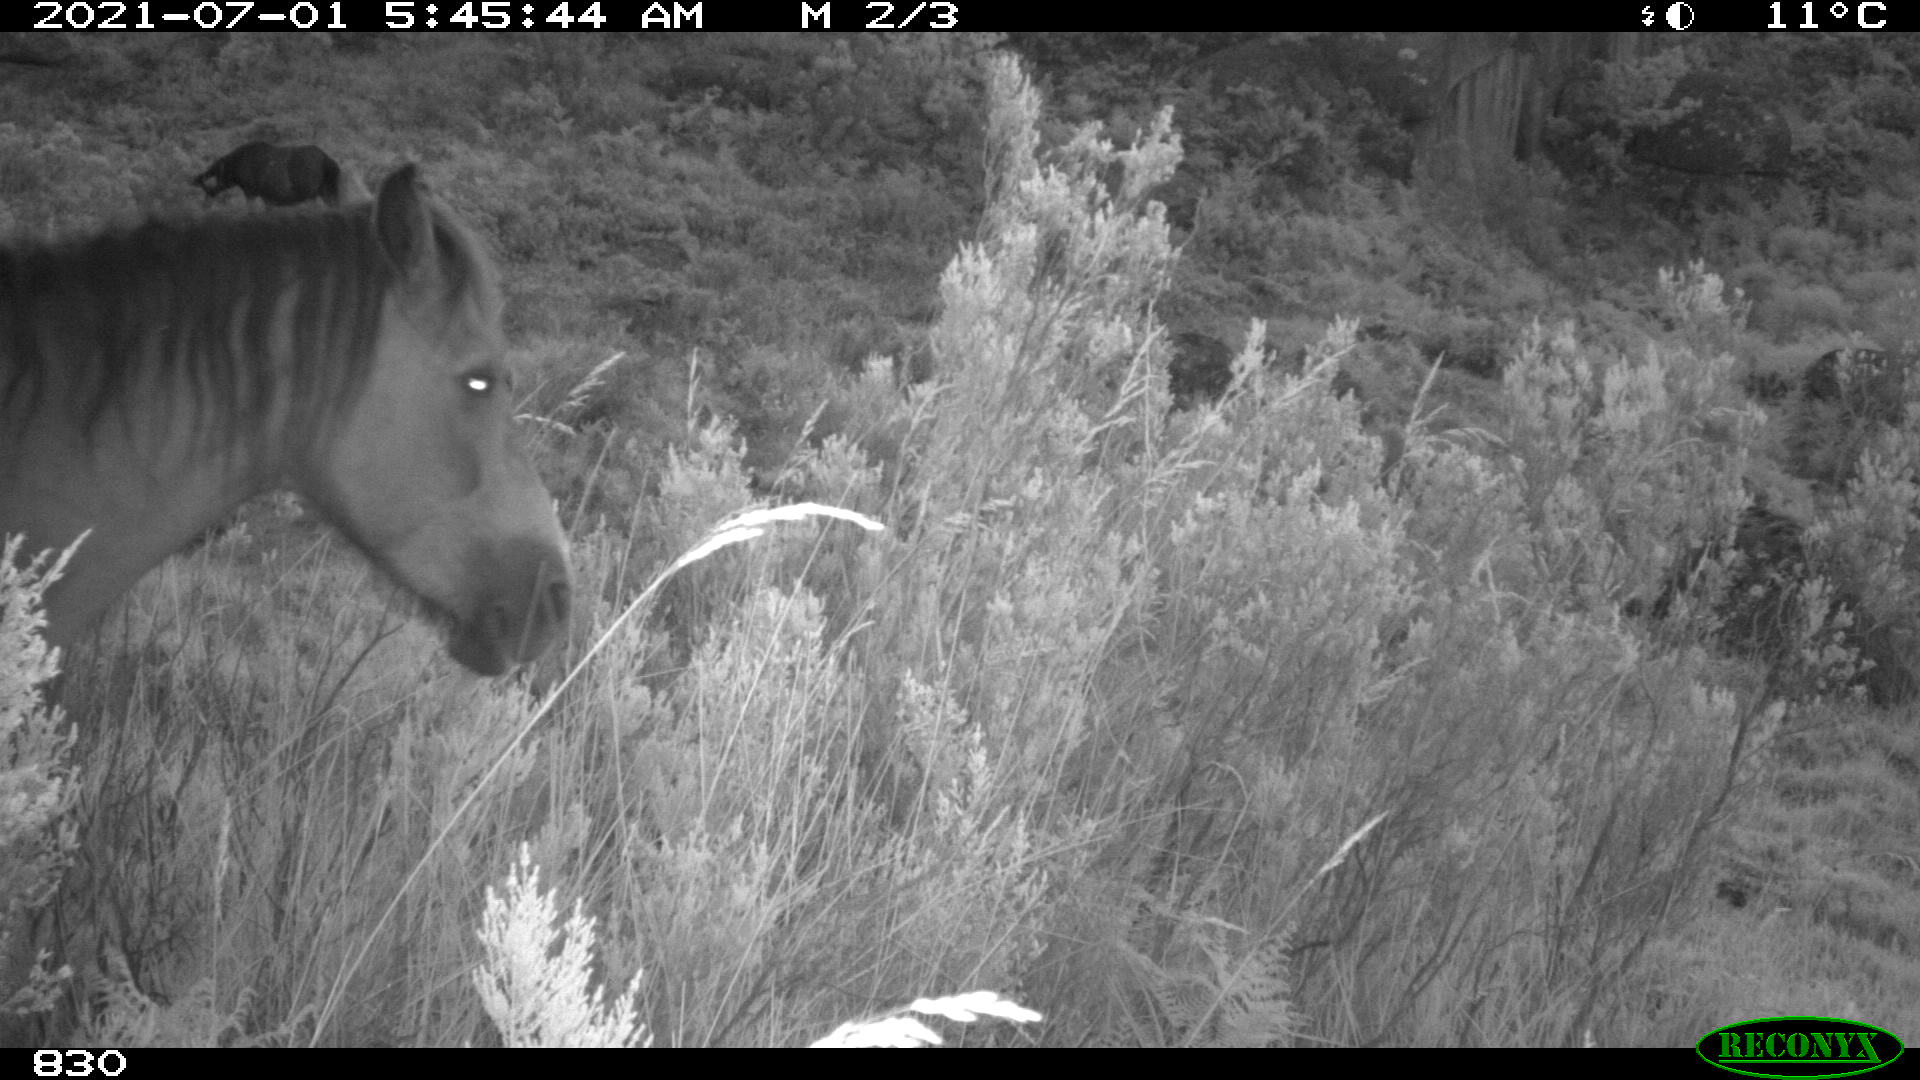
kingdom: Animalia
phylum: Chordata
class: Mammalia
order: Perissodactyla
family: Equidae
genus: Equus
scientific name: Equus caballus
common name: Horse
